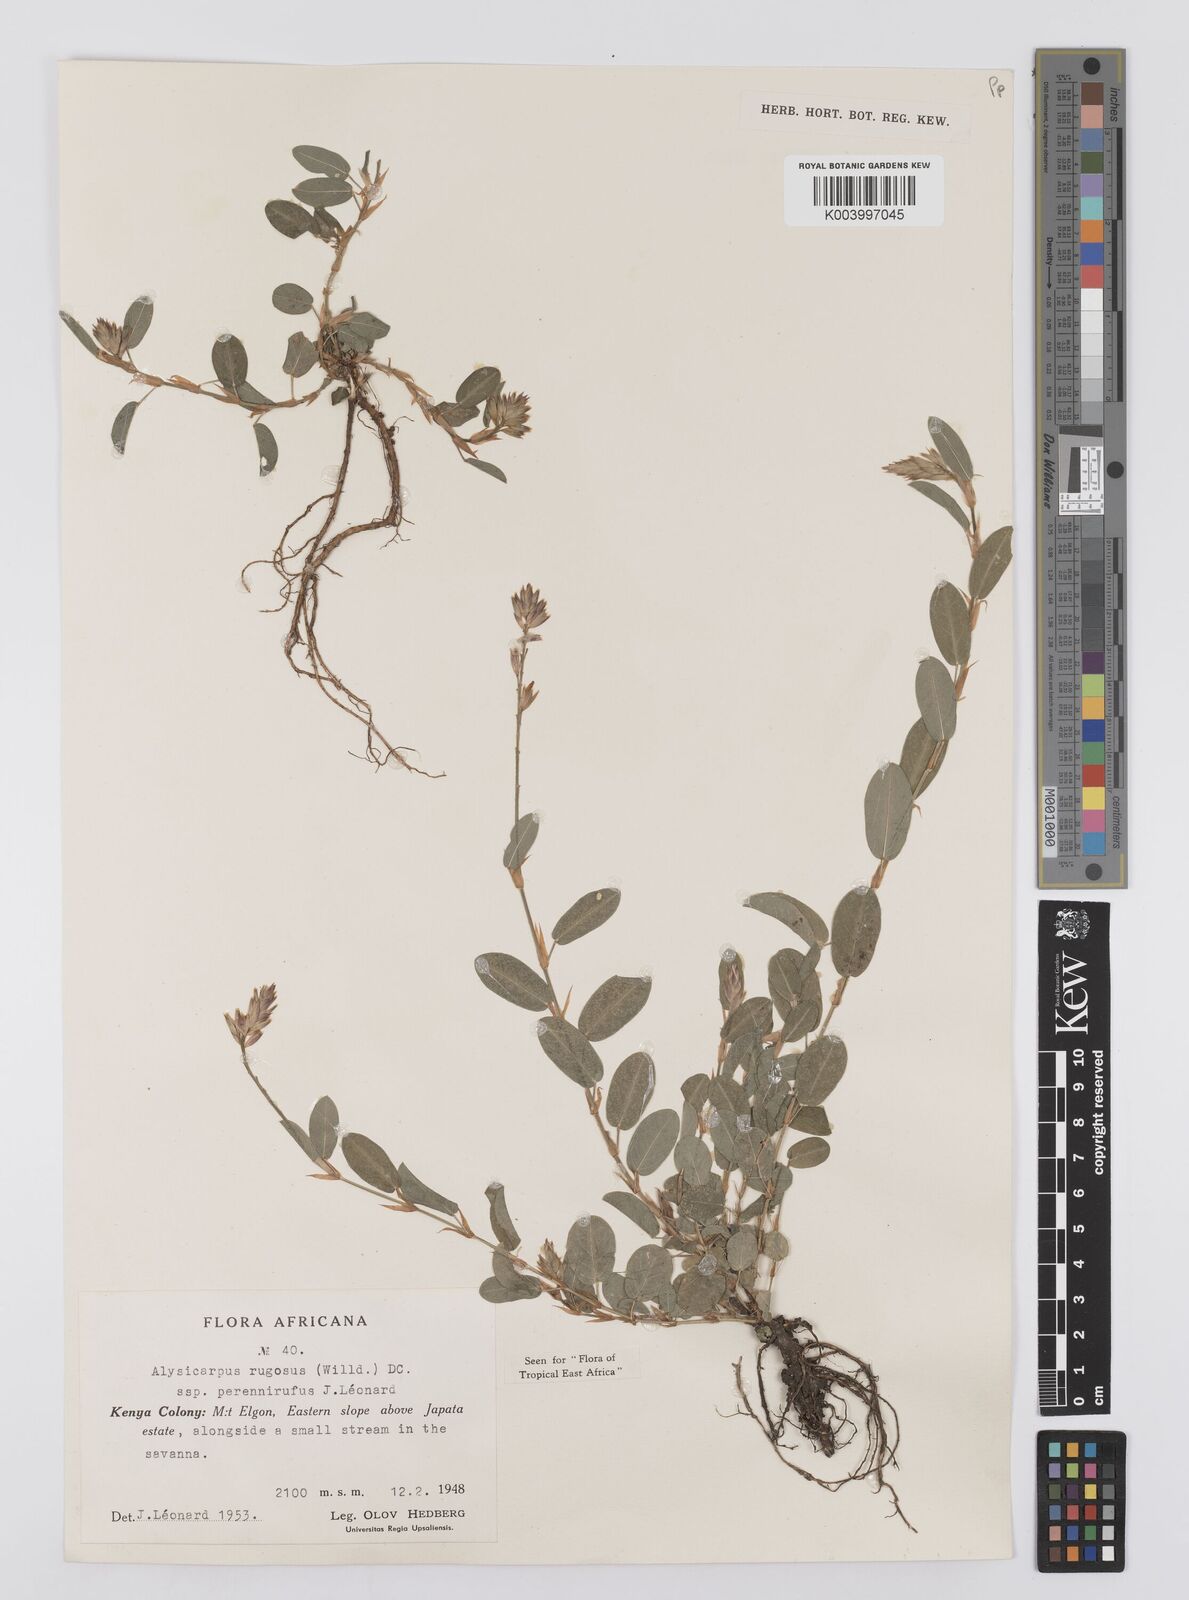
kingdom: Plantae
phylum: Tracheophyta
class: Magnoliopsida
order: Fabales
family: Fabaceae
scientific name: Fabaceae
